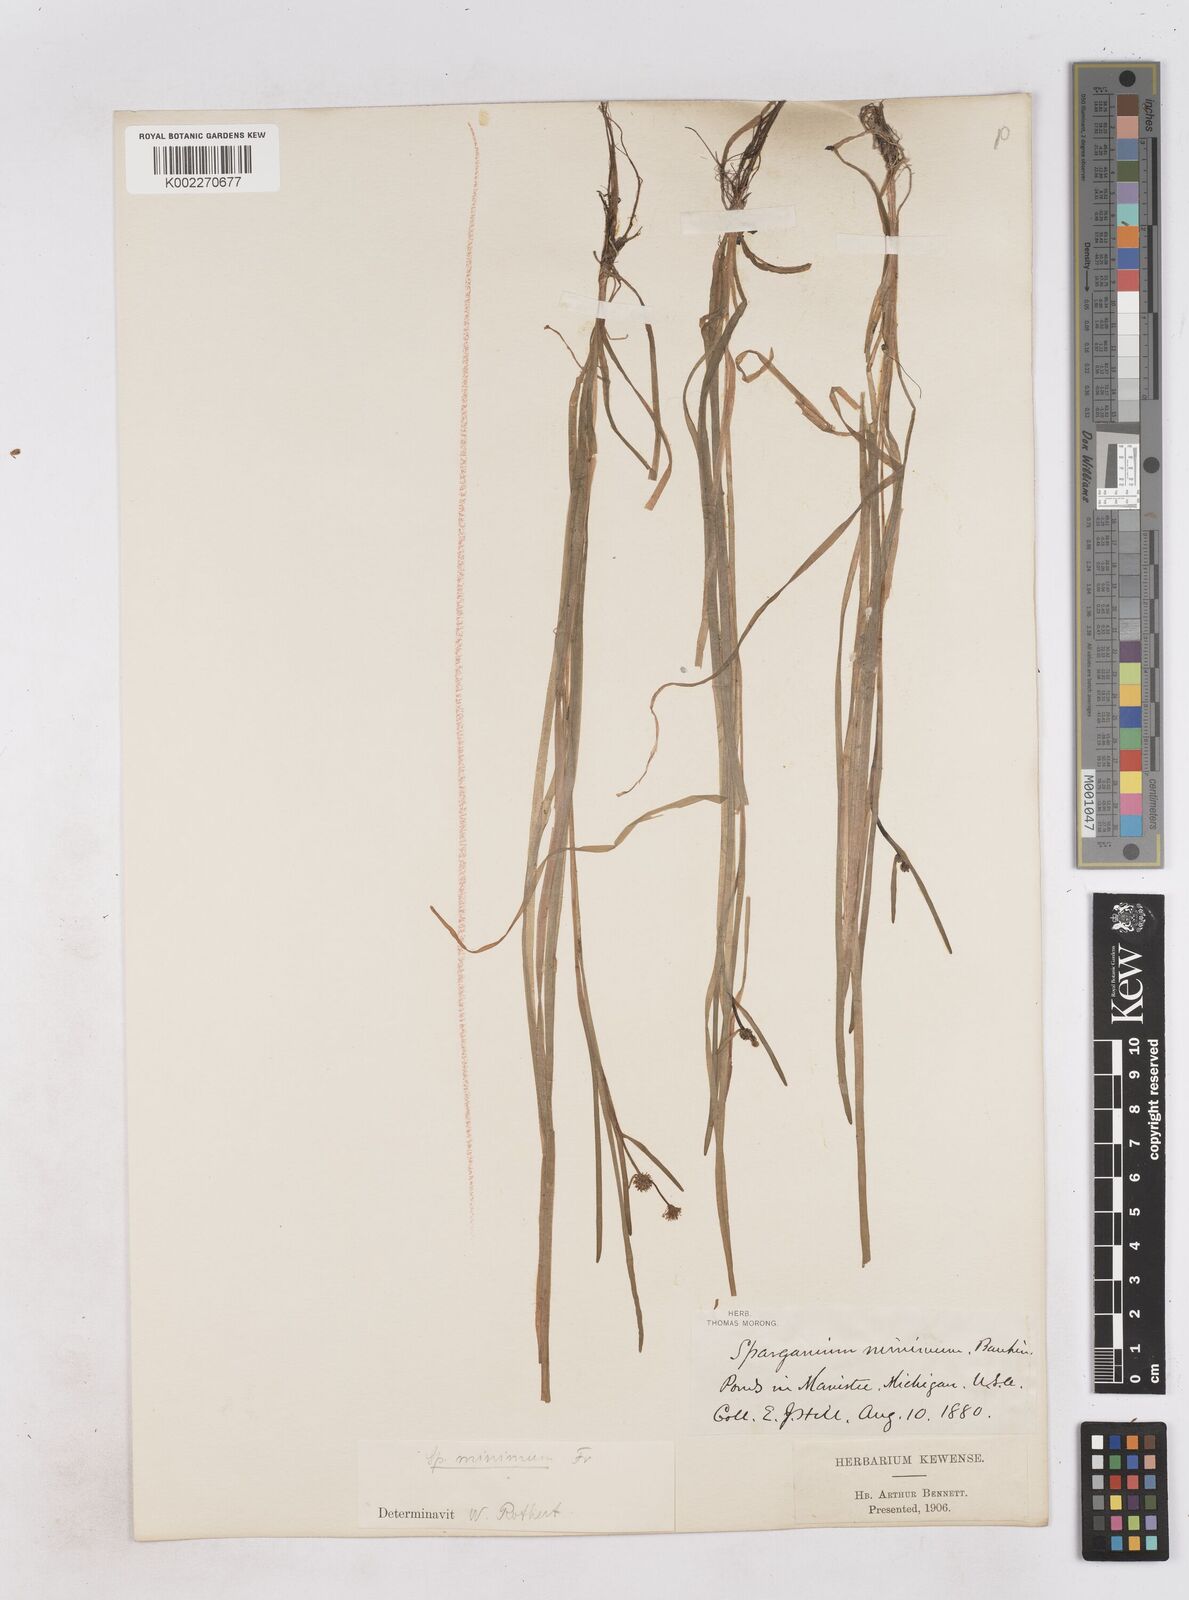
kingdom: Plantae
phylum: Tracheophyta
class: Liliopsida
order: Poales
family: Typhaceae
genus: Sparganium
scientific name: Sparganium natans
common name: Least bur-reed
